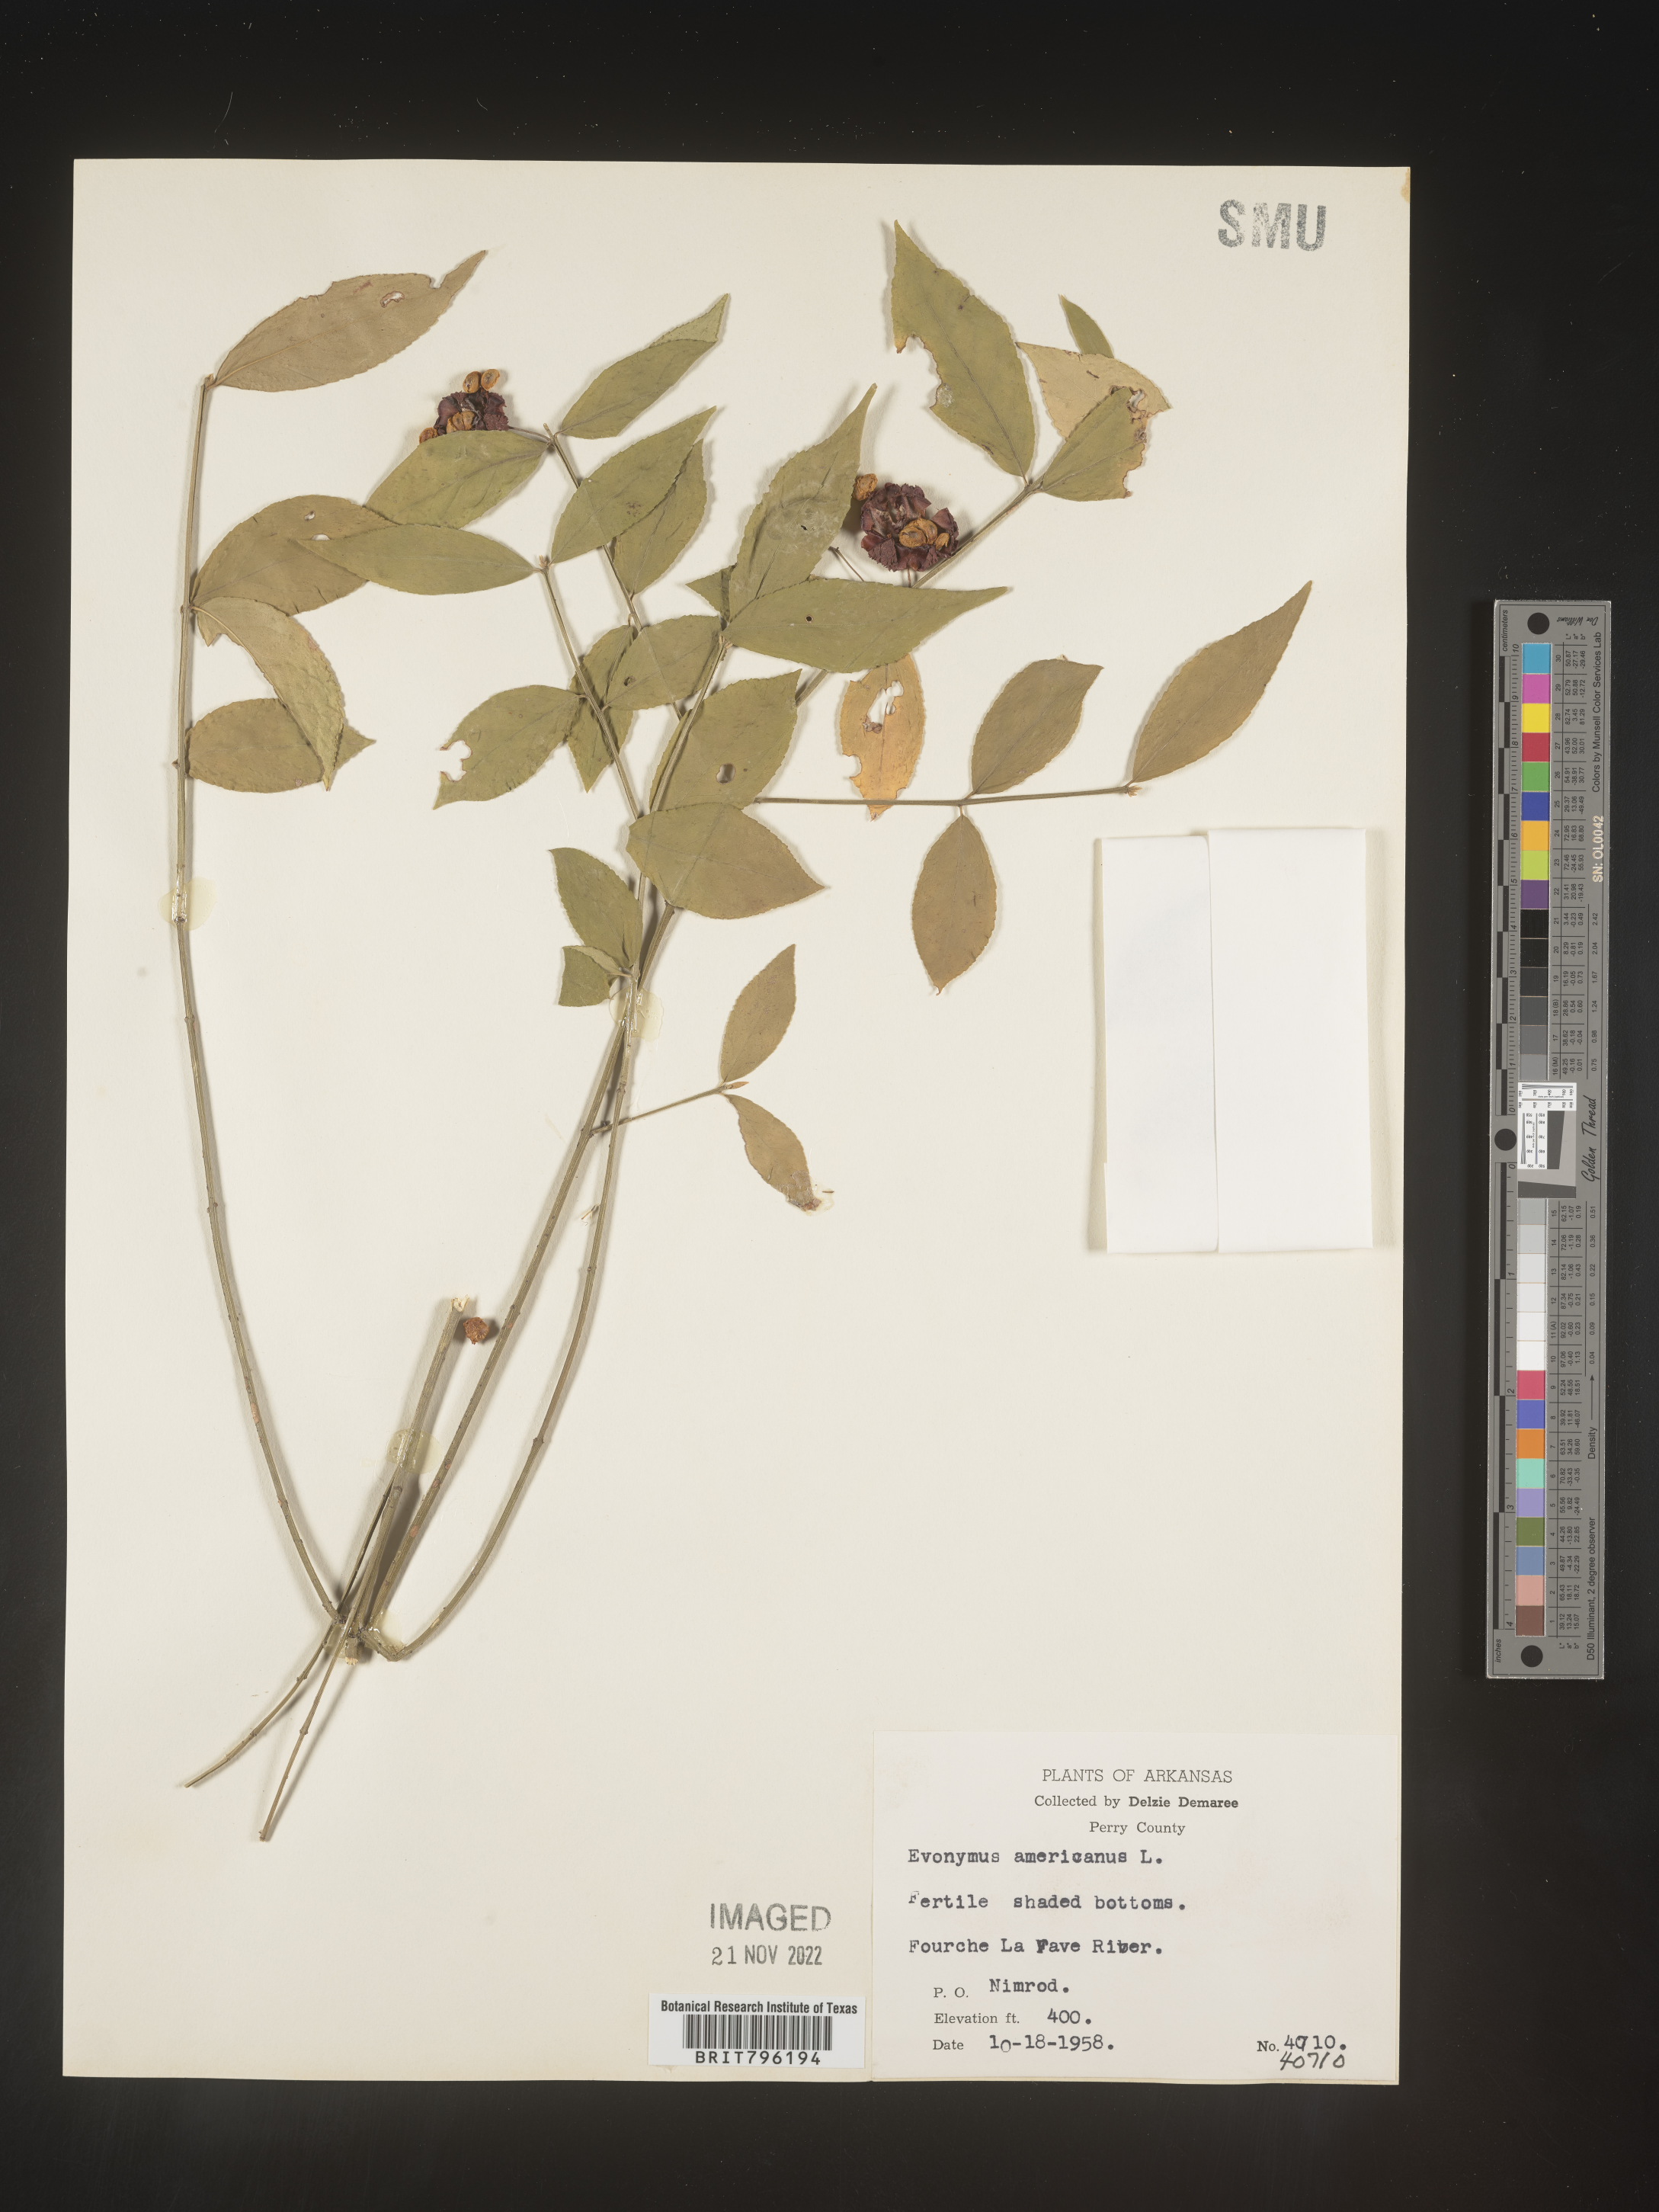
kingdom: Plantae
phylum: Tracheophyta
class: Magnoliopsida
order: Celastrales
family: Celastraceae
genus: Euonymus
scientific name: Euonymus americanus
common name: Bursting-heart
